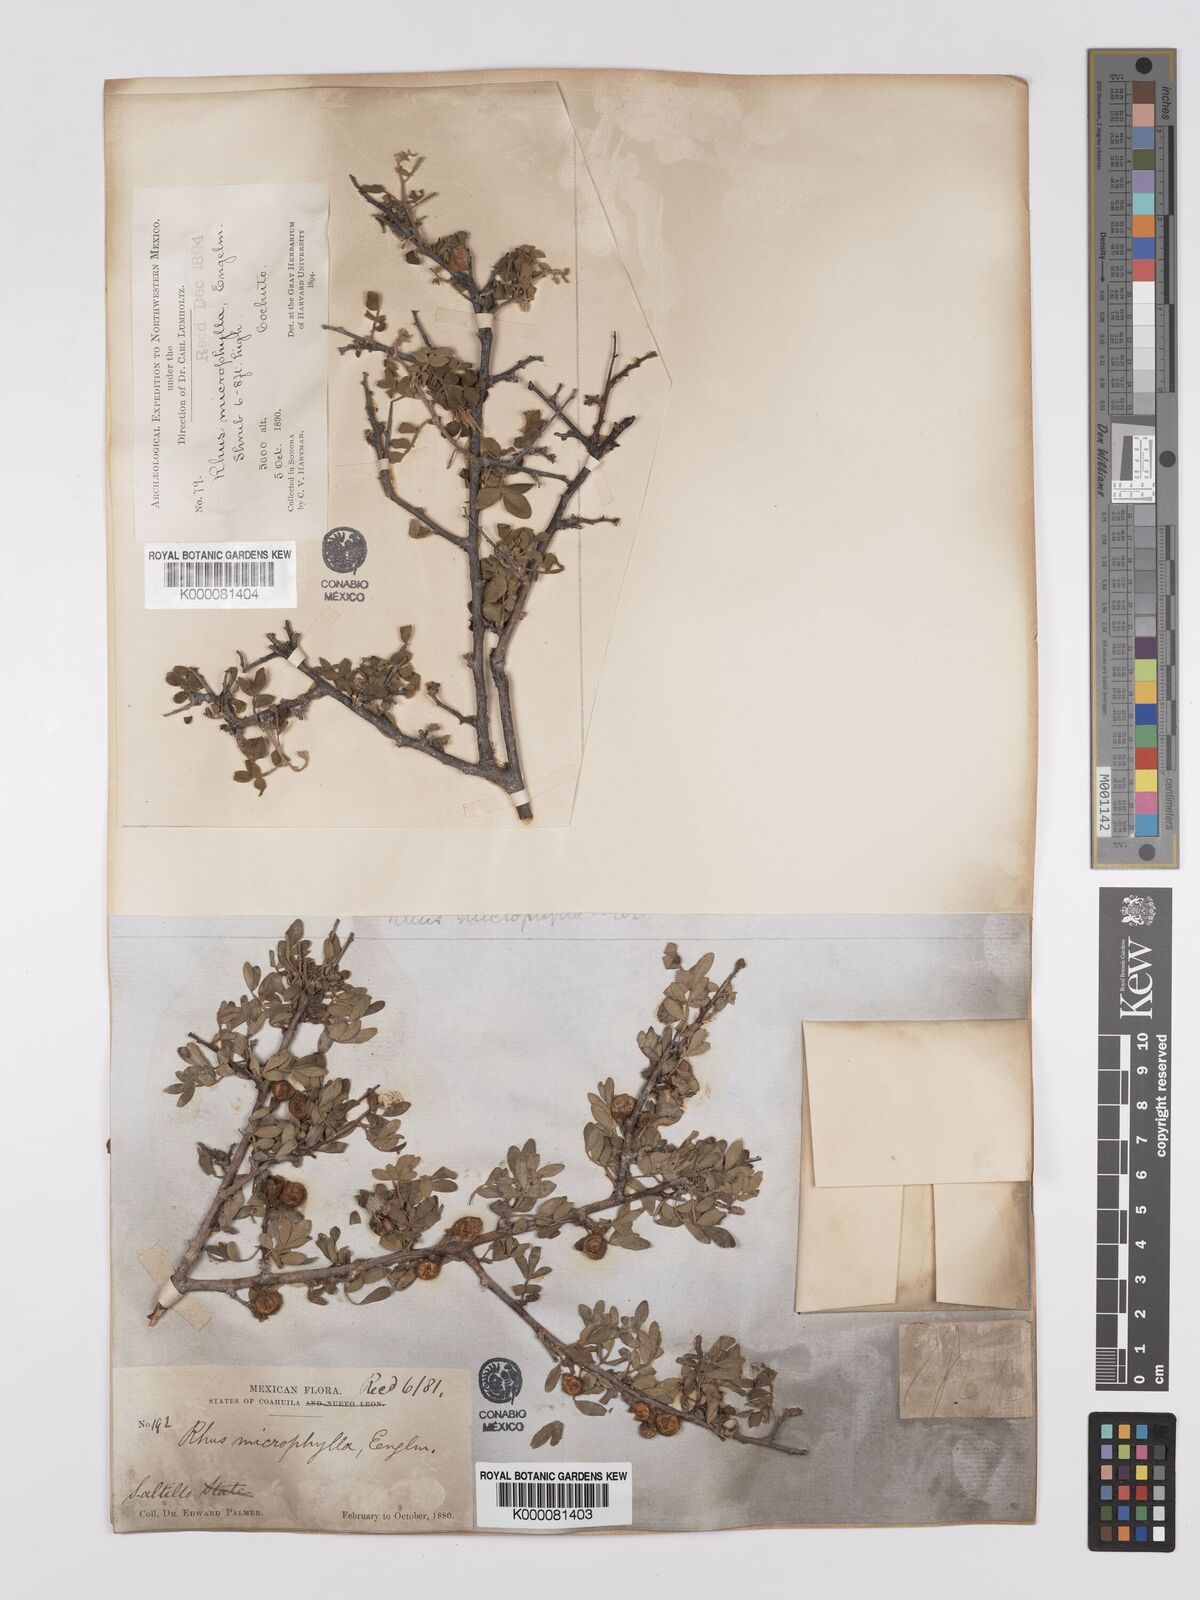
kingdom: Plantae
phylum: Tracheophyta
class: Magnoliopsida
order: Sapindales
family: Anacardiaceae
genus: Rhus
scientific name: Rhus
